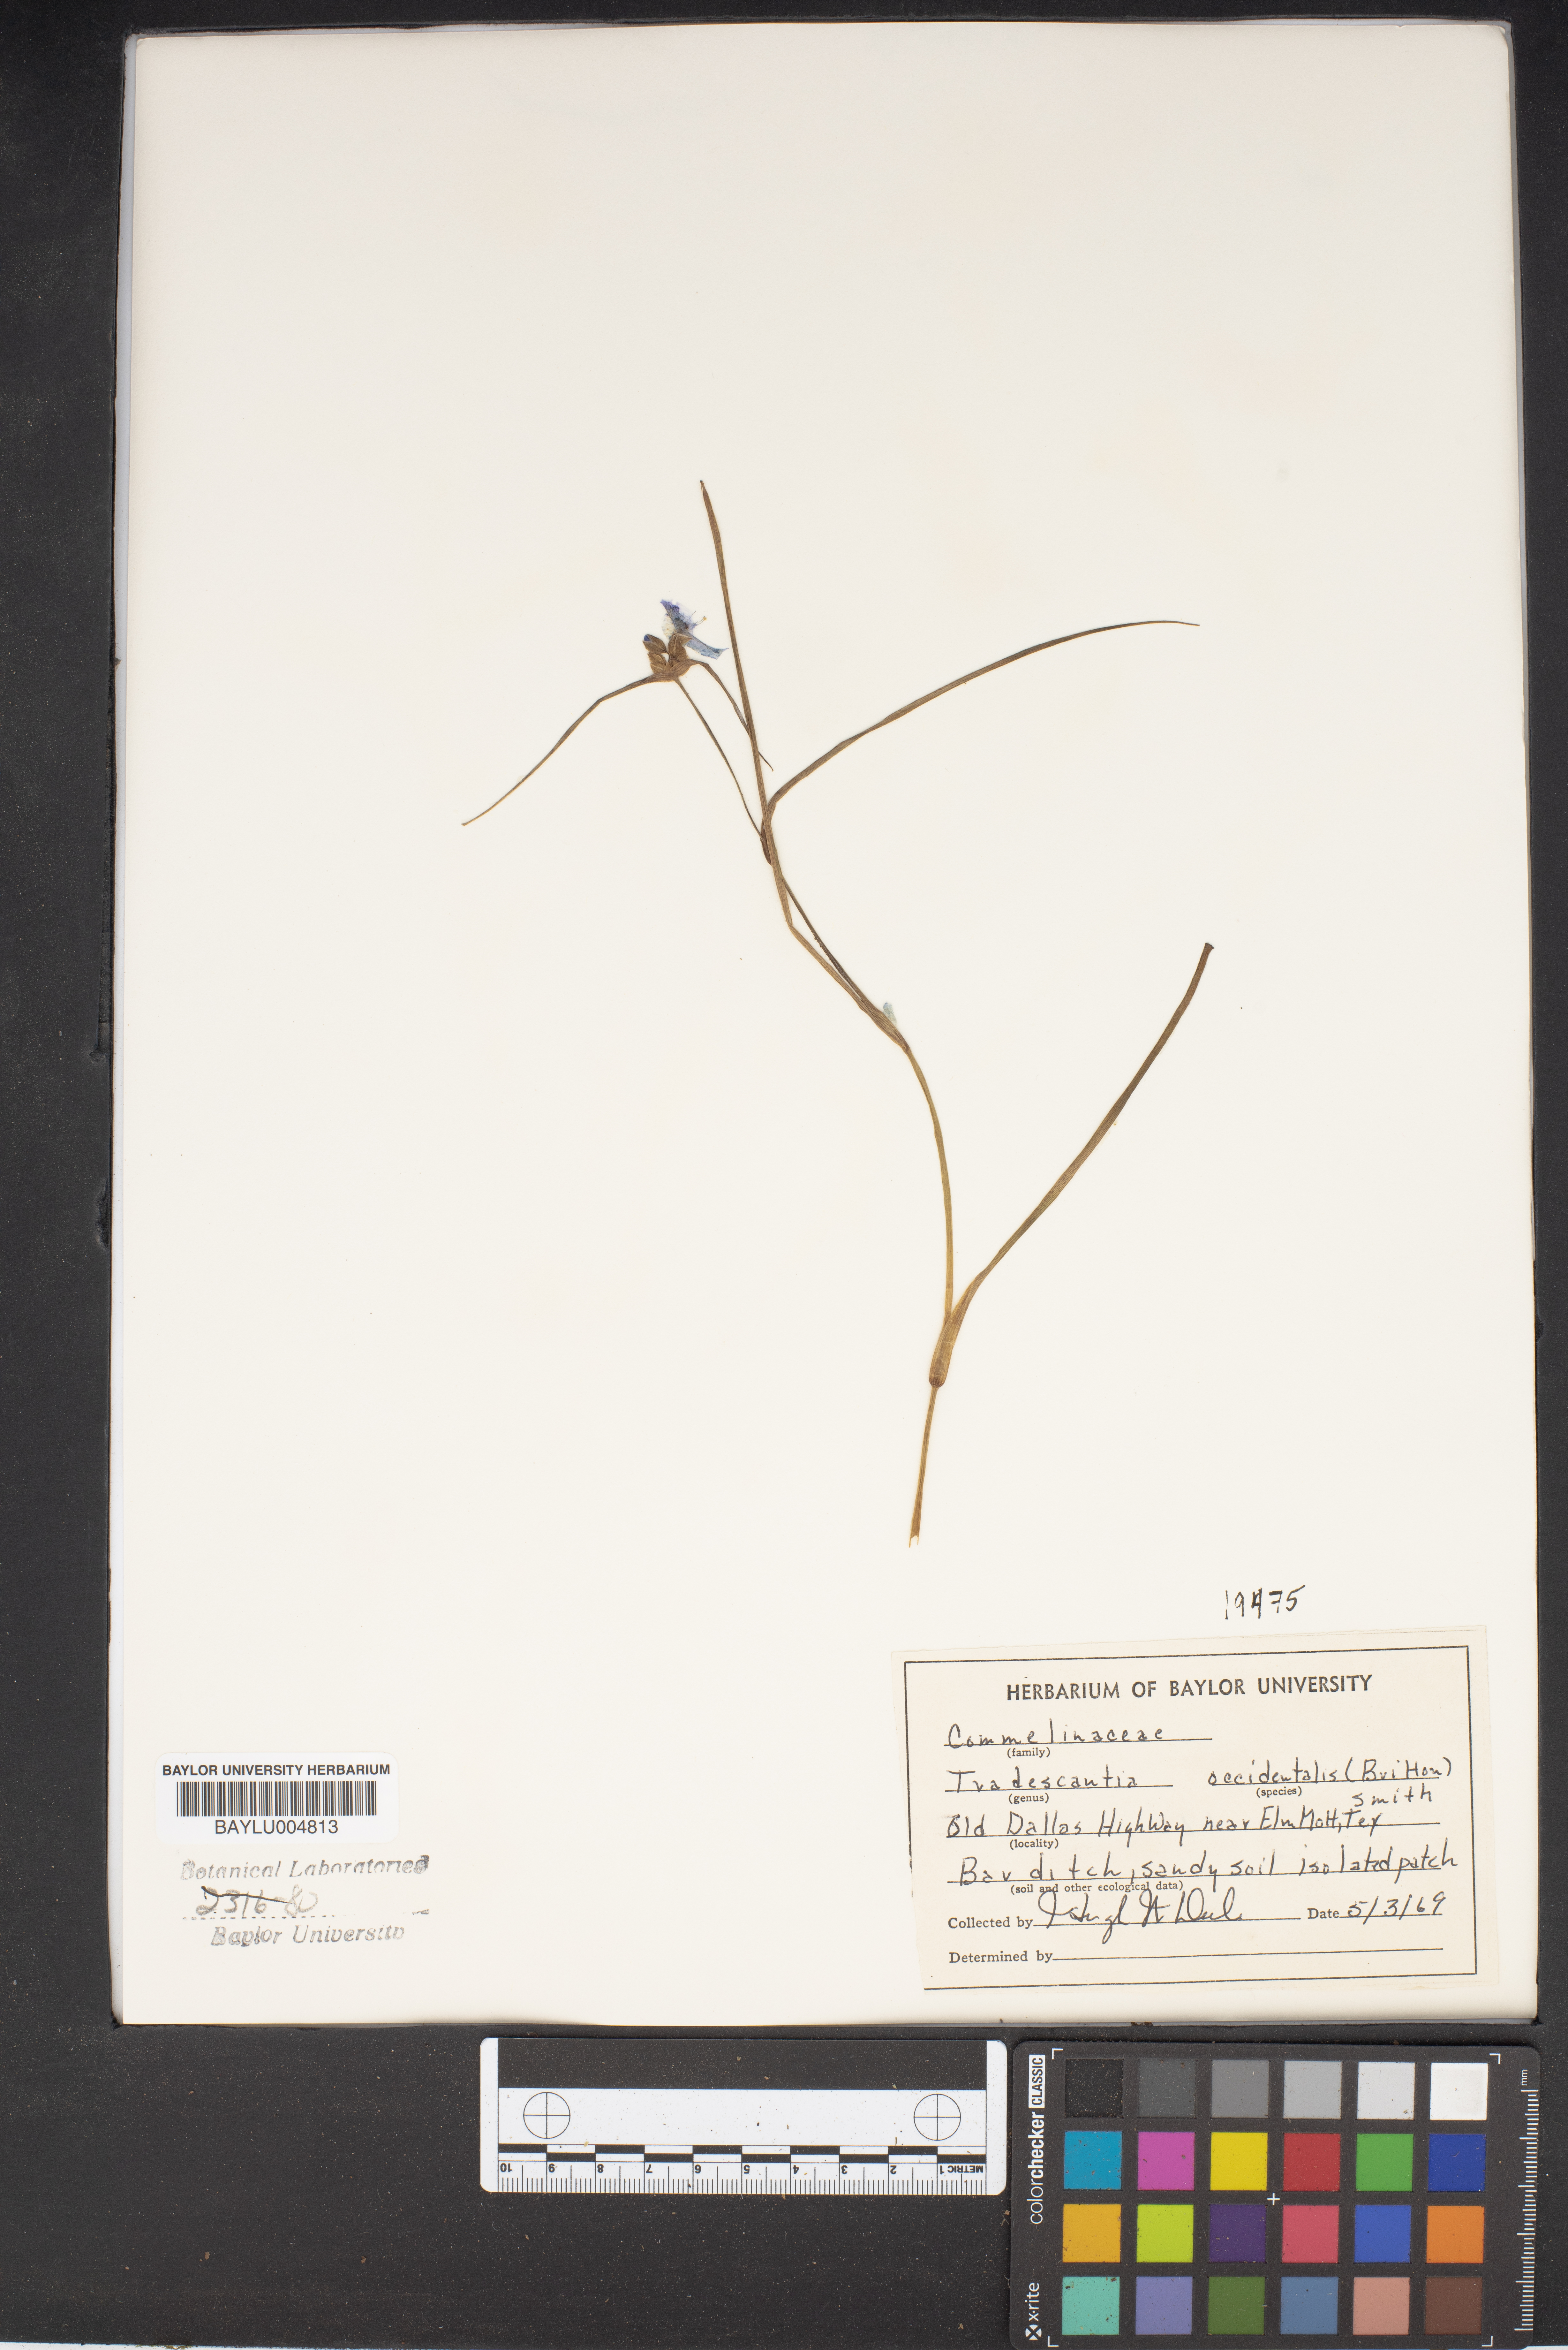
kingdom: Plantae
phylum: Tracheophyta
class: Liliopsida
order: Commelinales
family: Commelinaceae
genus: Tradescantia
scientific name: Tradescantia occidentalis
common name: Prairie spiderwort
